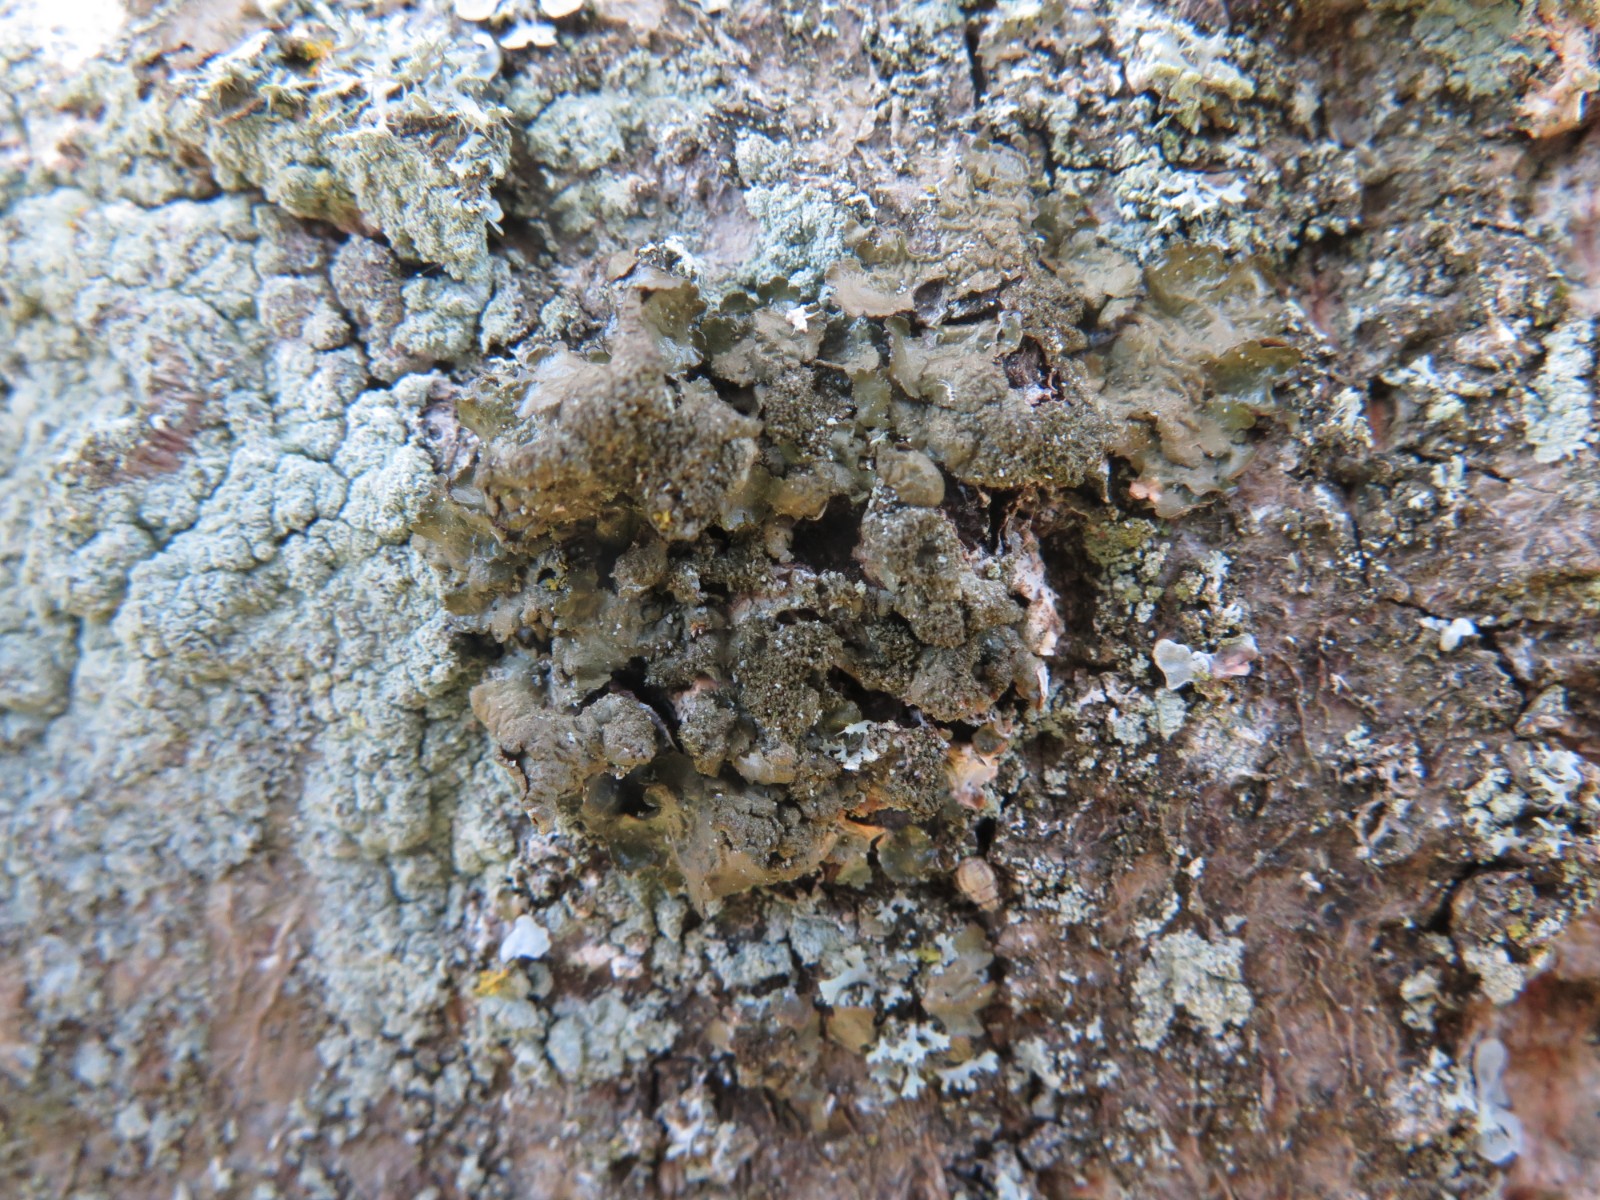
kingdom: Fungi
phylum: Ascomycota
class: Lecanoromycetes
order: Lecanorales
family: Parmeliaceae
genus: Melanelixia
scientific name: Melanelixia subaurifera
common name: guldpudret skållav
